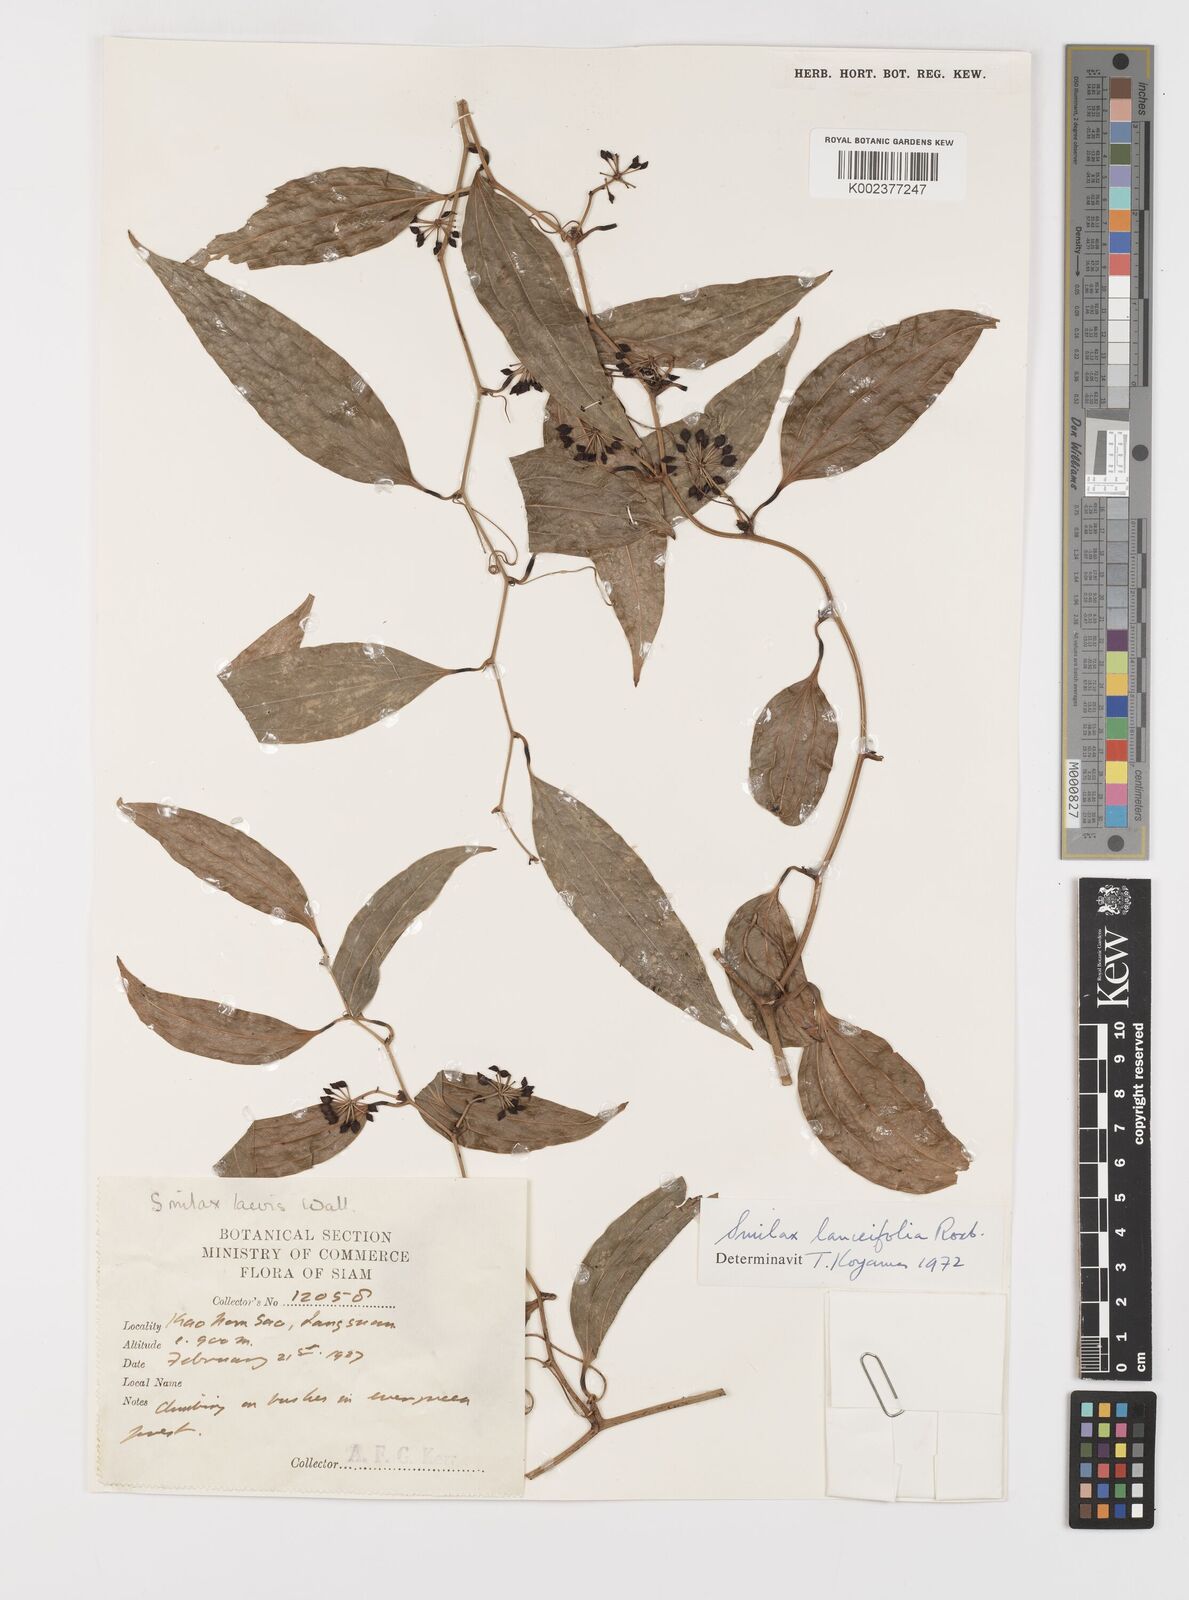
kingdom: Plantae
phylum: Tracheophyta
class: Liliopsida
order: Liliales
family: Smilacaceae
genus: Smilax
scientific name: Smilax lanceifolia
